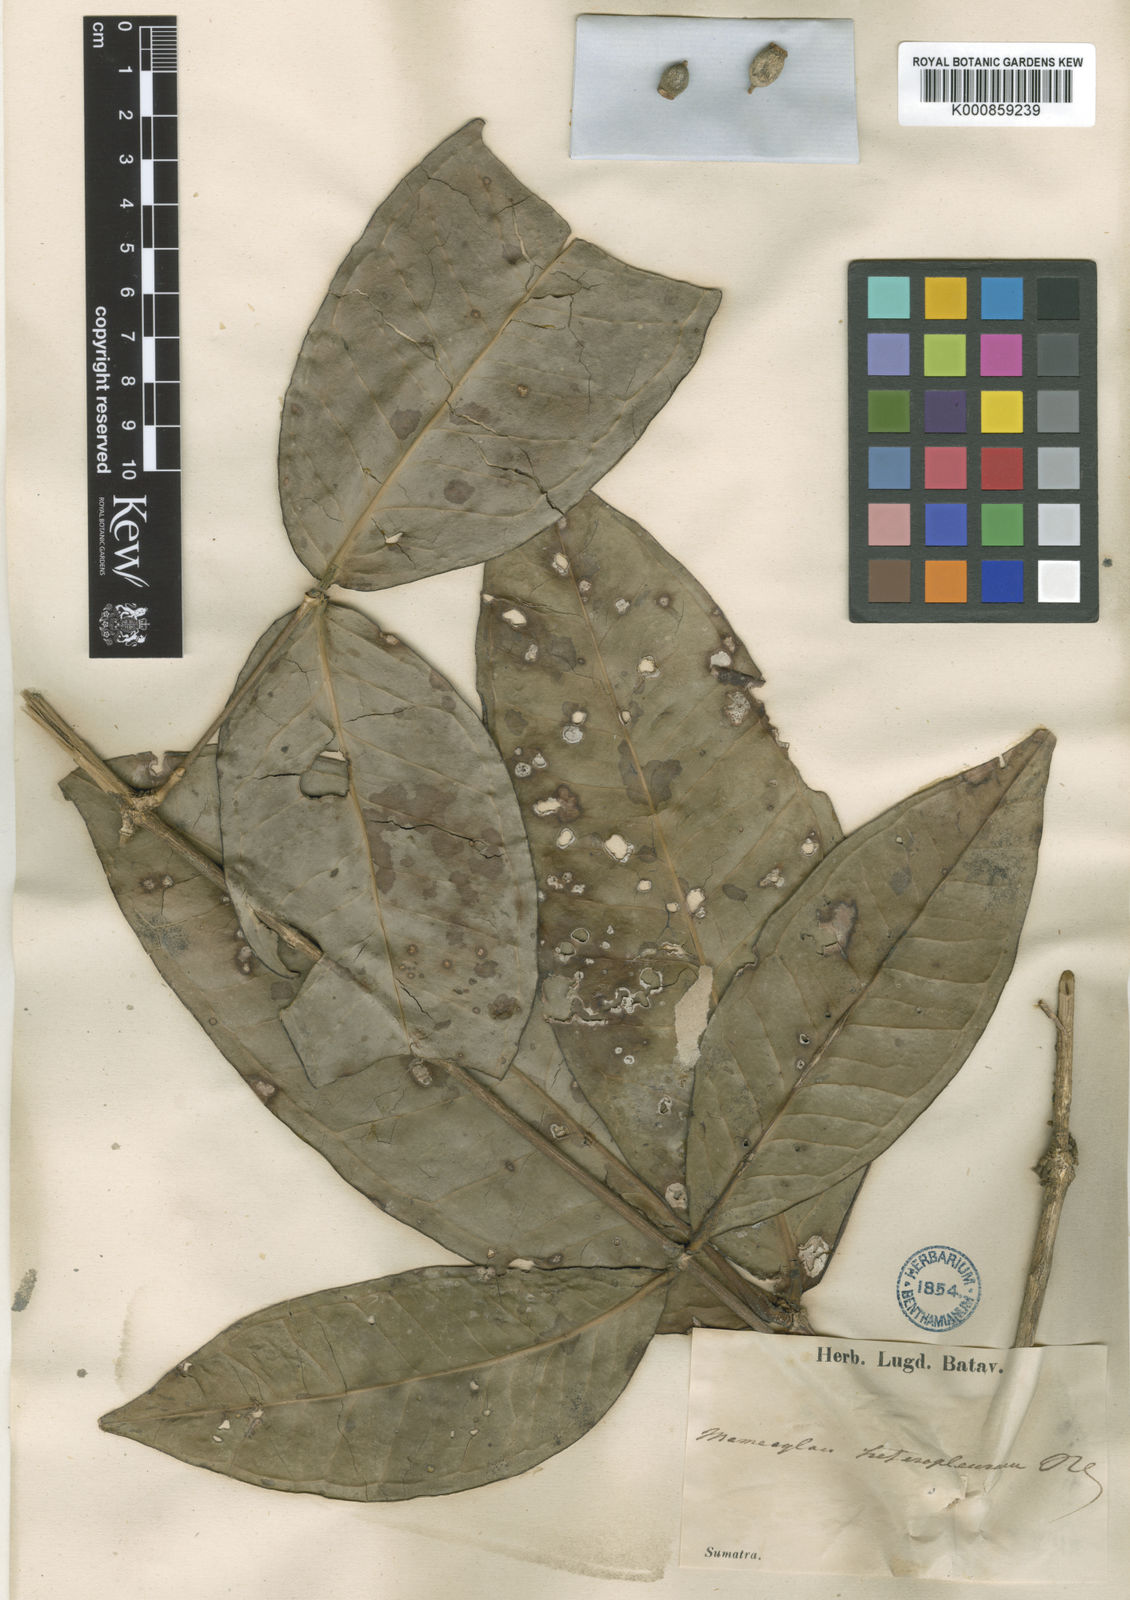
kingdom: Plantae
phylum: Tracheophyta
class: Magnoliopsida
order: Myrtales
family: Melastomataceae
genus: Memecylon
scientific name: Memecylon excelsum
